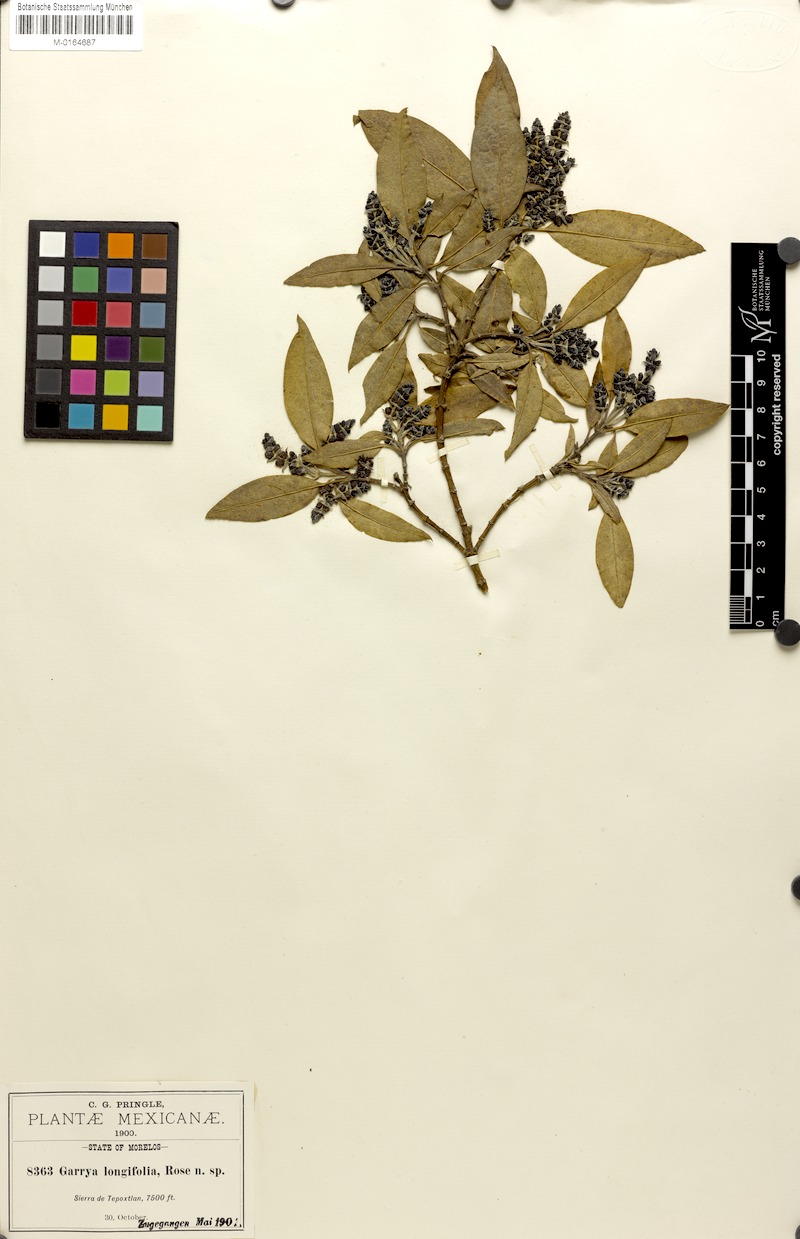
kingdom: Plantae
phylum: Tracheophyta
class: Magnoliopsida
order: Garryales
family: Garryaceae
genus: Garrya
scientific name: Garrya longifolia
